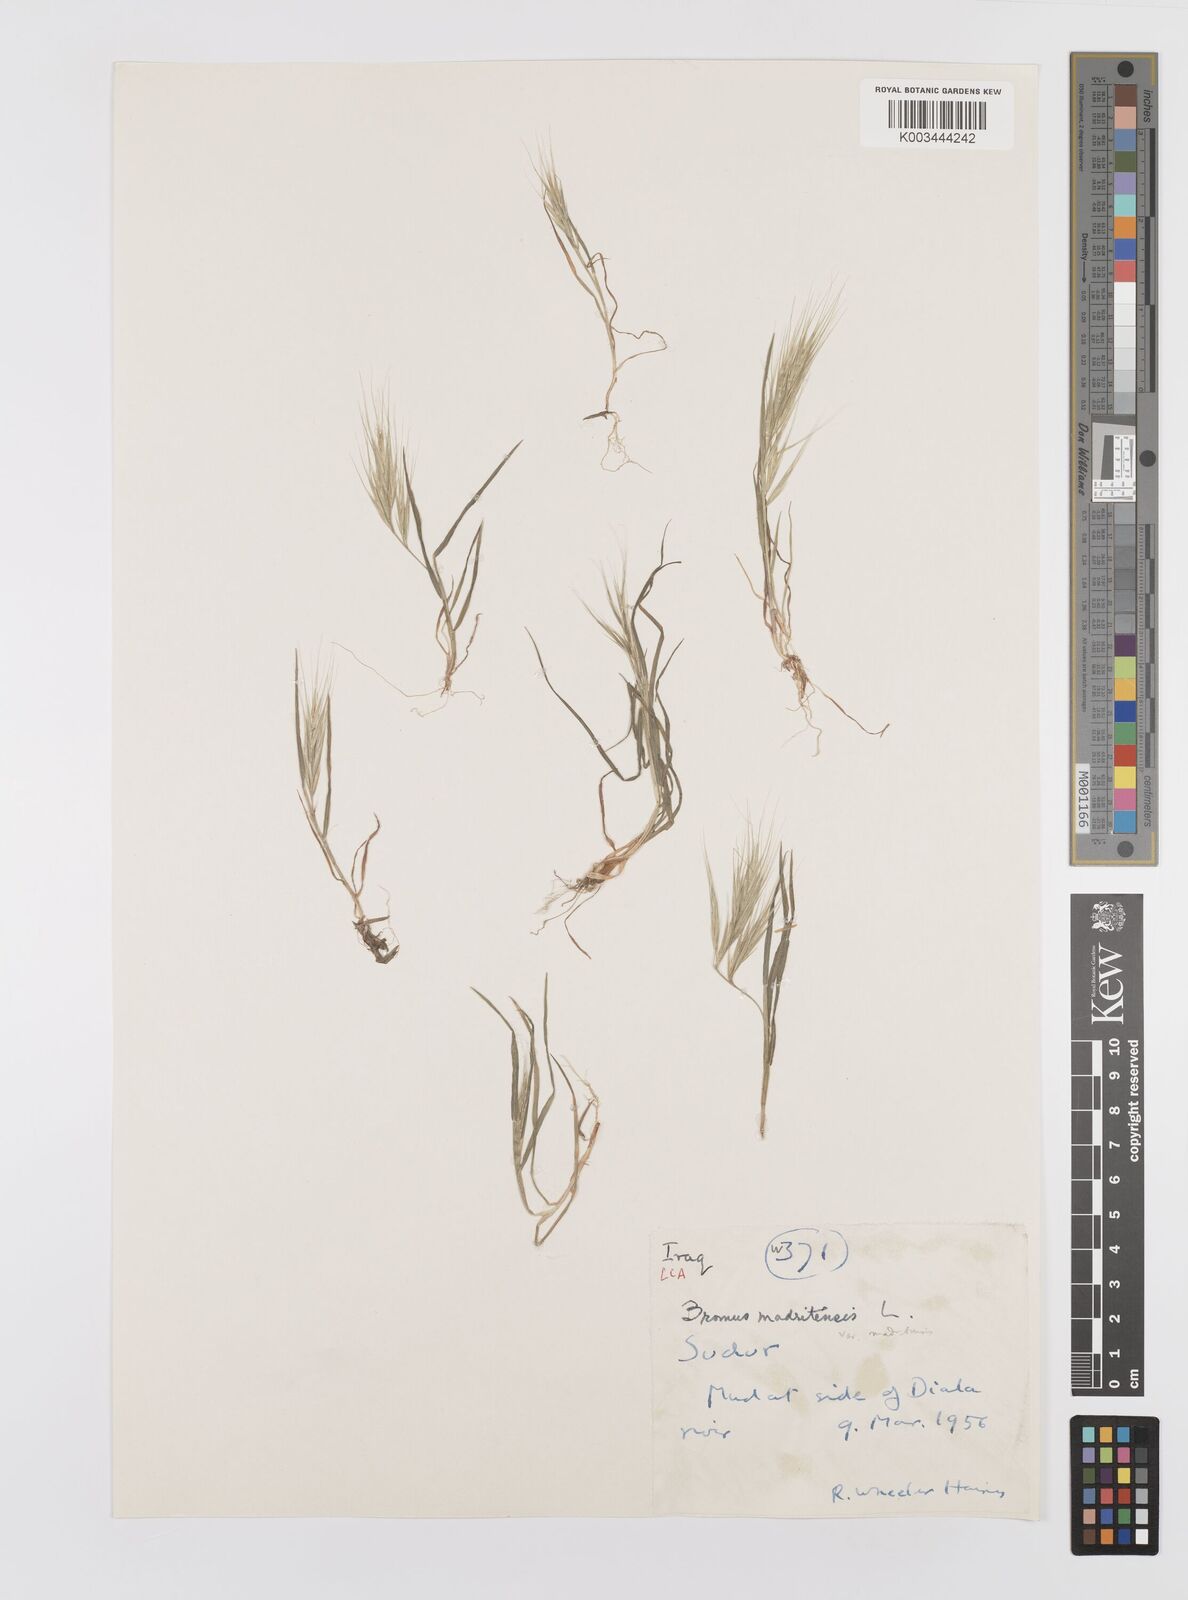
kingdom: Plantae
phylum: Tracheophyta
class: Liliopsida
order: Poales
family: Poaceae
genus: Bromus
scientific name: Bromus madritensis
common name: Compact brome
